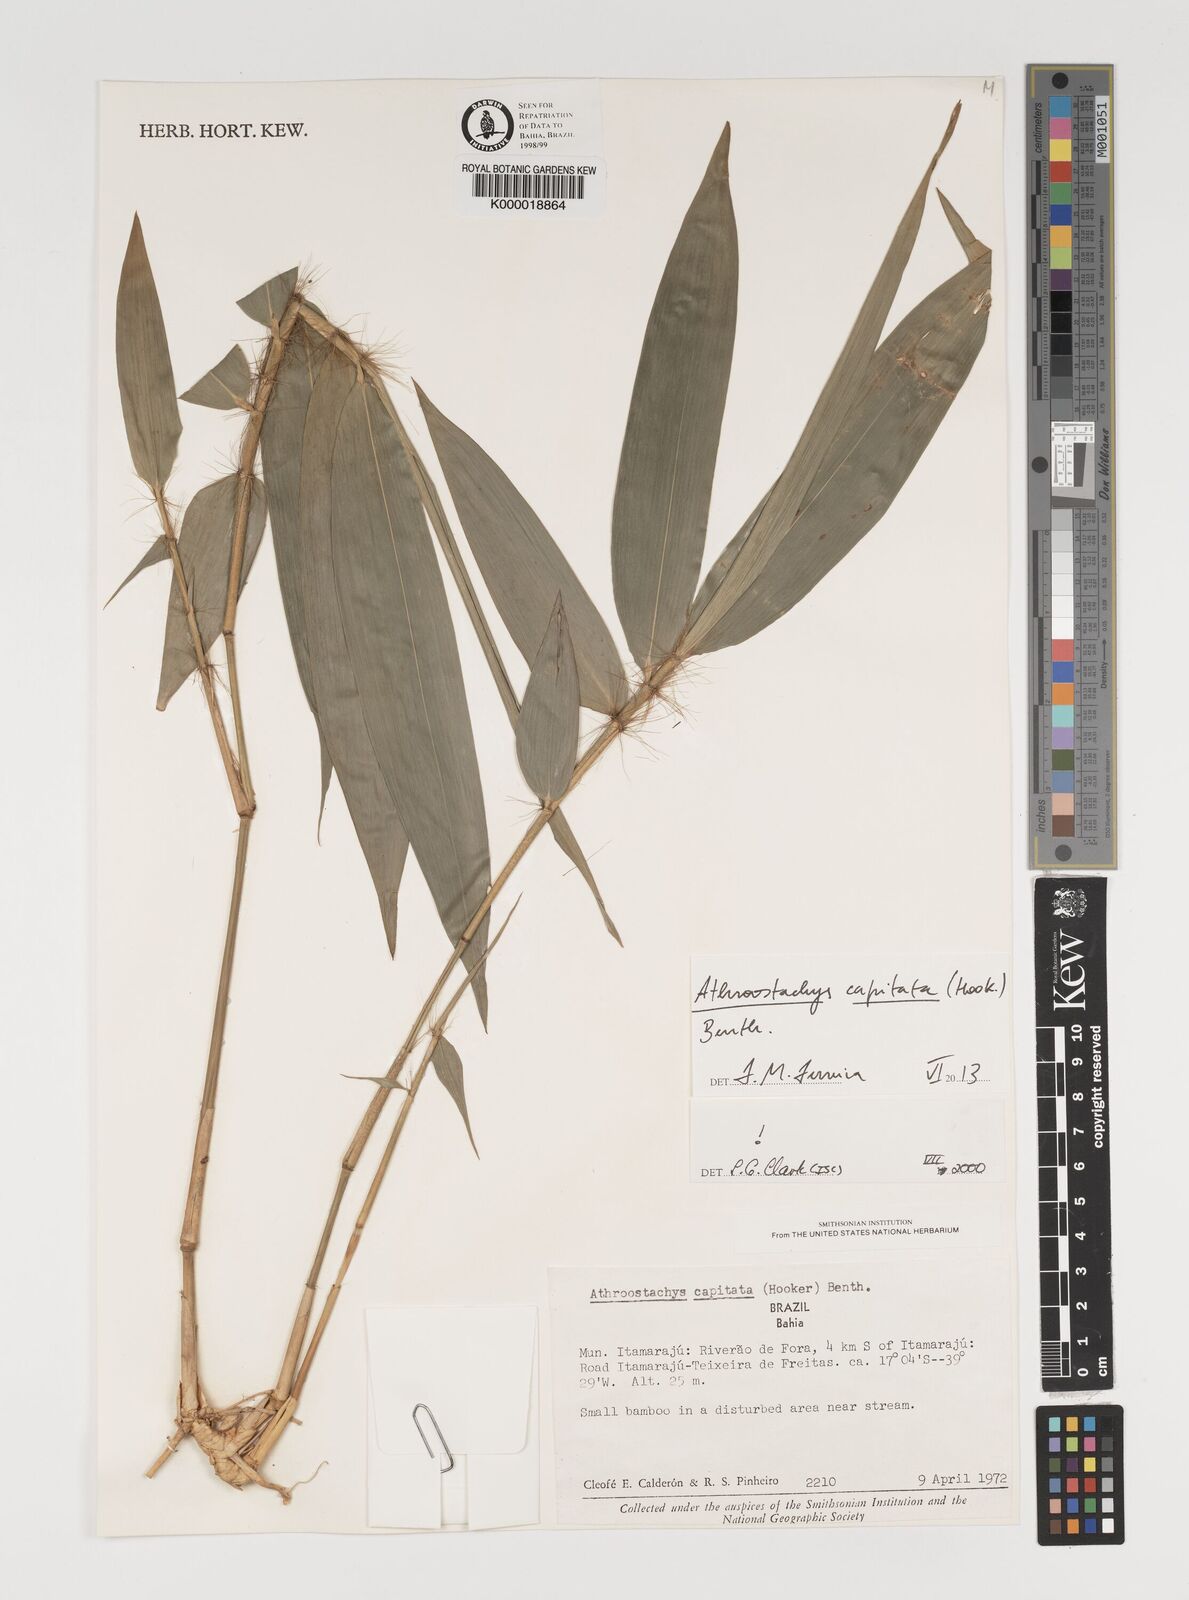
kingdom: Plantae
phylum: Tracheophyta
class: Liliopsida
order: Poales
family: Poaceae
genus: Athroostachys
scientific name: Athroostachys capitata
